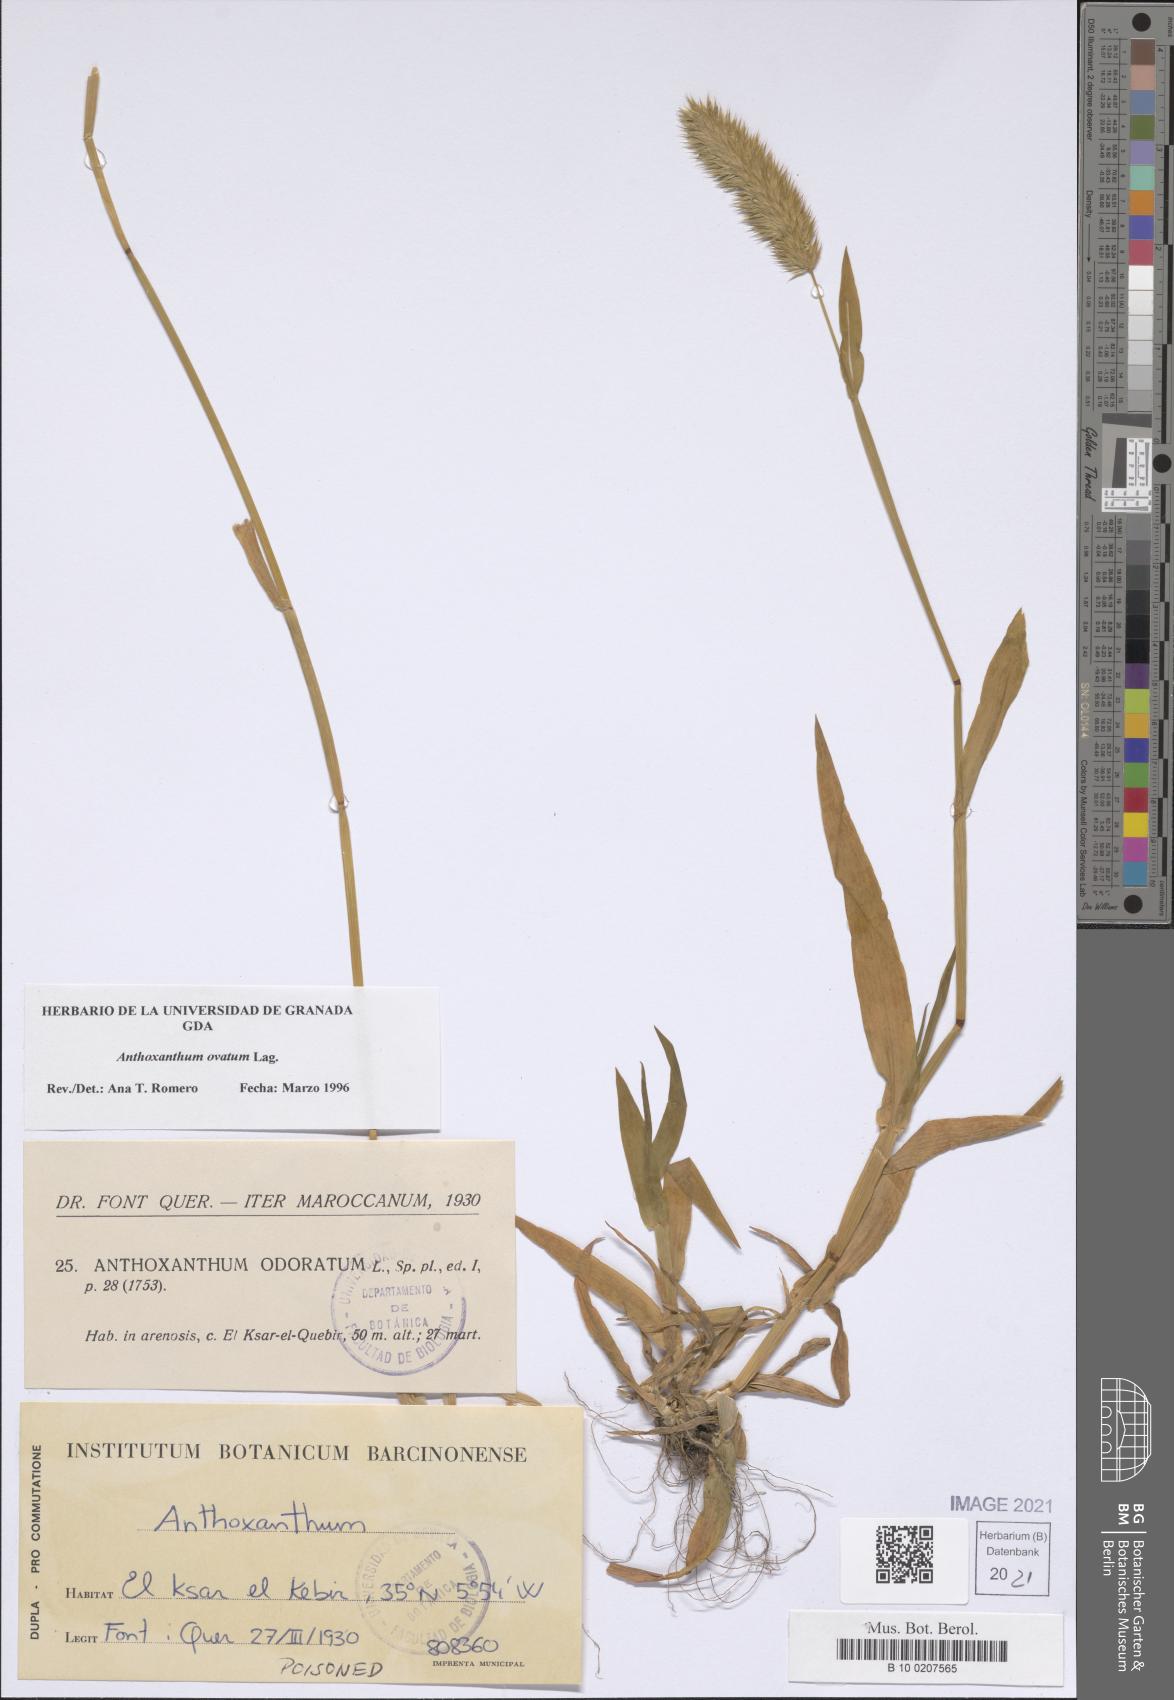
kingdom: Plantae
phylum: Tracheophyta
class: Liliopsida
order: Poales
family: Poaceae
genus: Anthoxanthum
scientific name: Anthoxanthum ovatum
